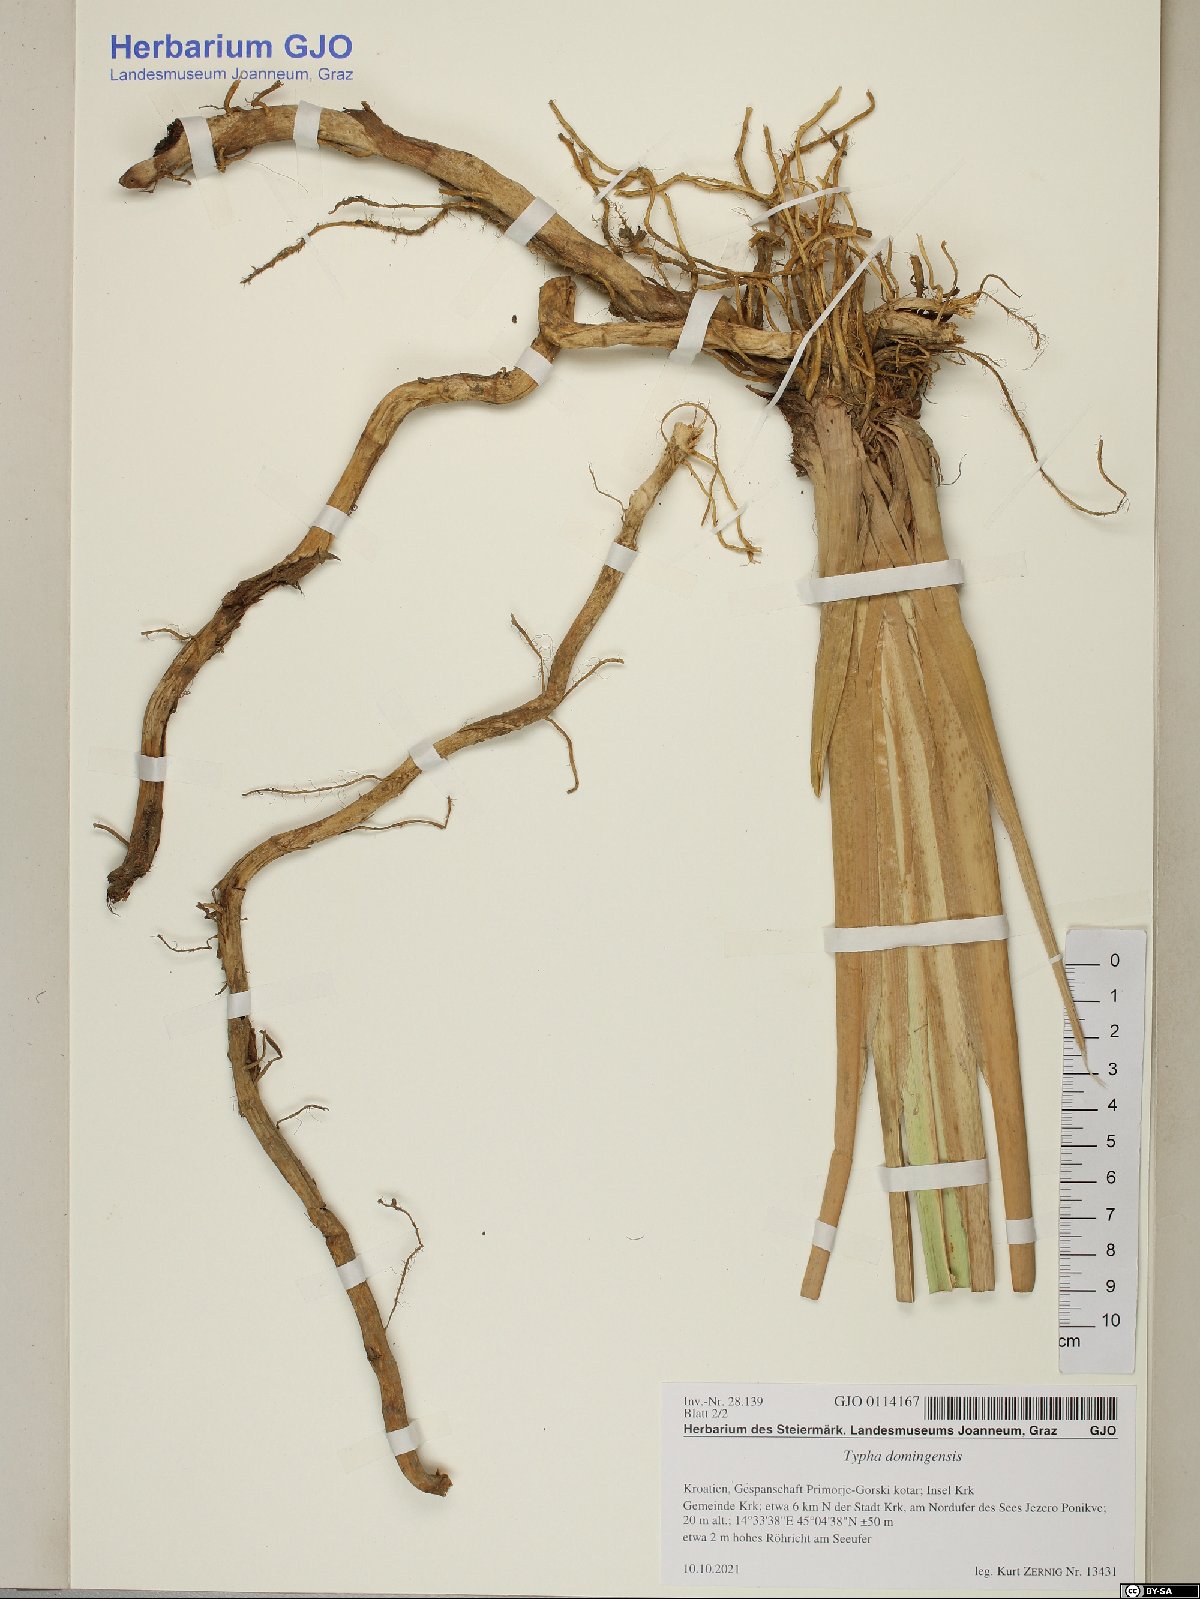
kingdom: Plantae
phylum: Tracheophyta
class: Liliopsida
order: Poales
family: Typhaceae
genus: Typha
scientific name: Typha domingensis
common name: Southern cattail
